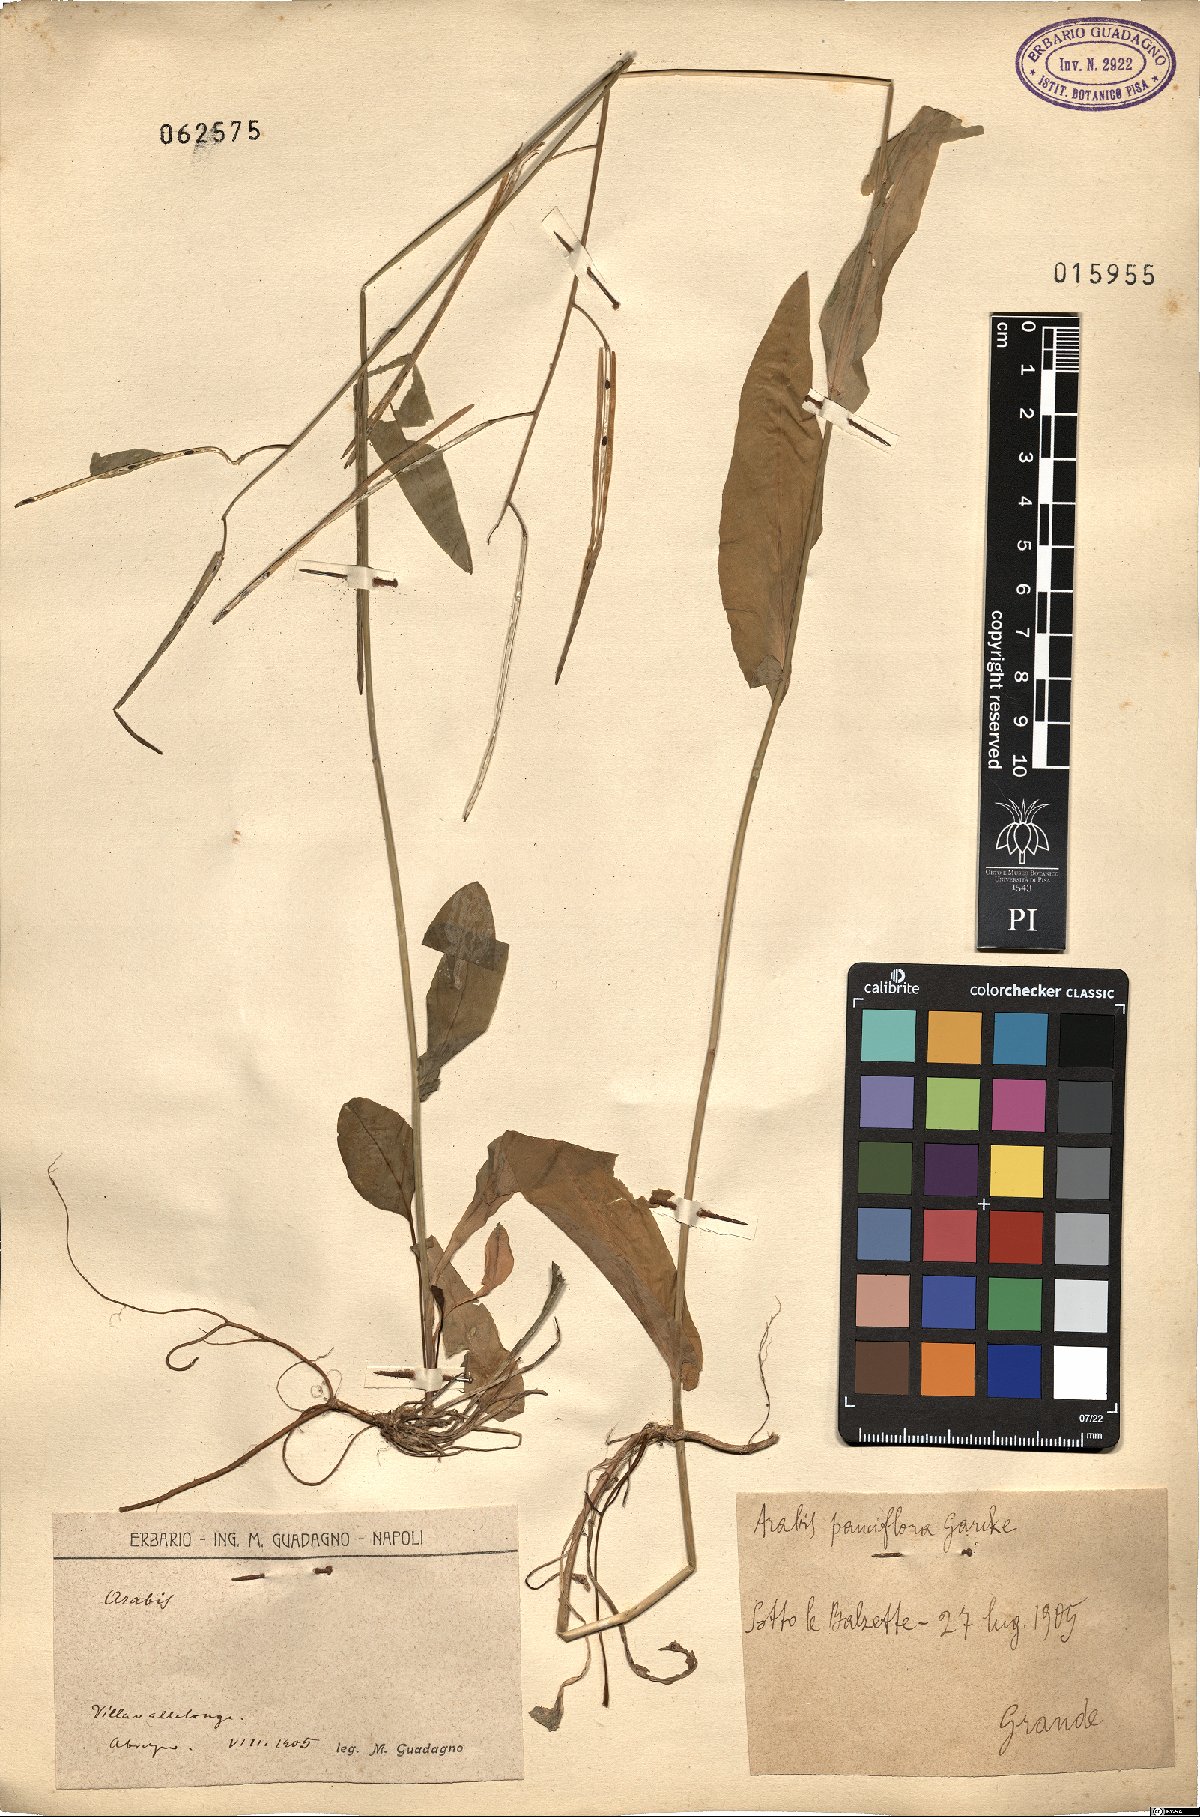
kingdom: Plantae
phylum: Tracheophyta
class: Magnoliopsida
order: Brassicales
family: Brassicaceae
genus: Arabis
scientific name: Arabis
